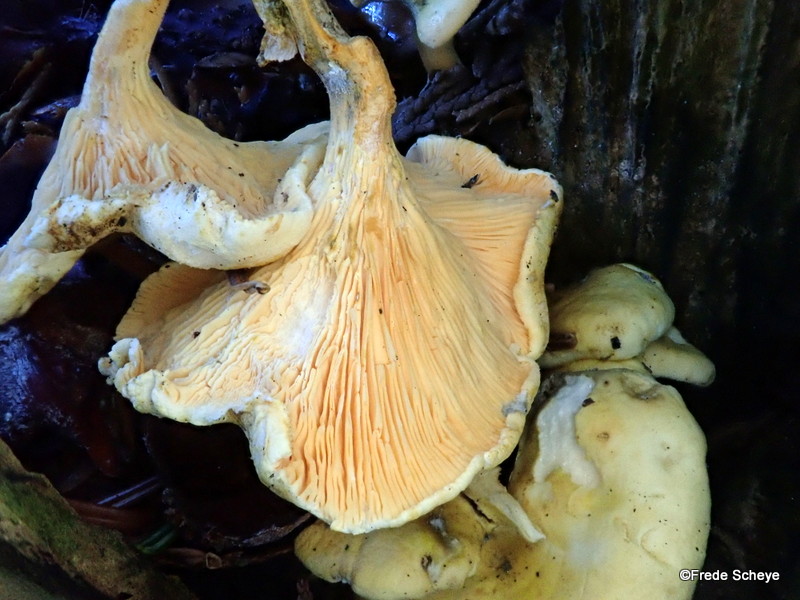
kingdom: Fungi
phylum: Basidiomycota
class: Agaricomycetes
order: Boletales
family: Hygrophoropsidaceae
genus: Hygrophoropsis
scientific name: Hygrophoropsis aurantiaca
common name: almindelig orangekantarel
